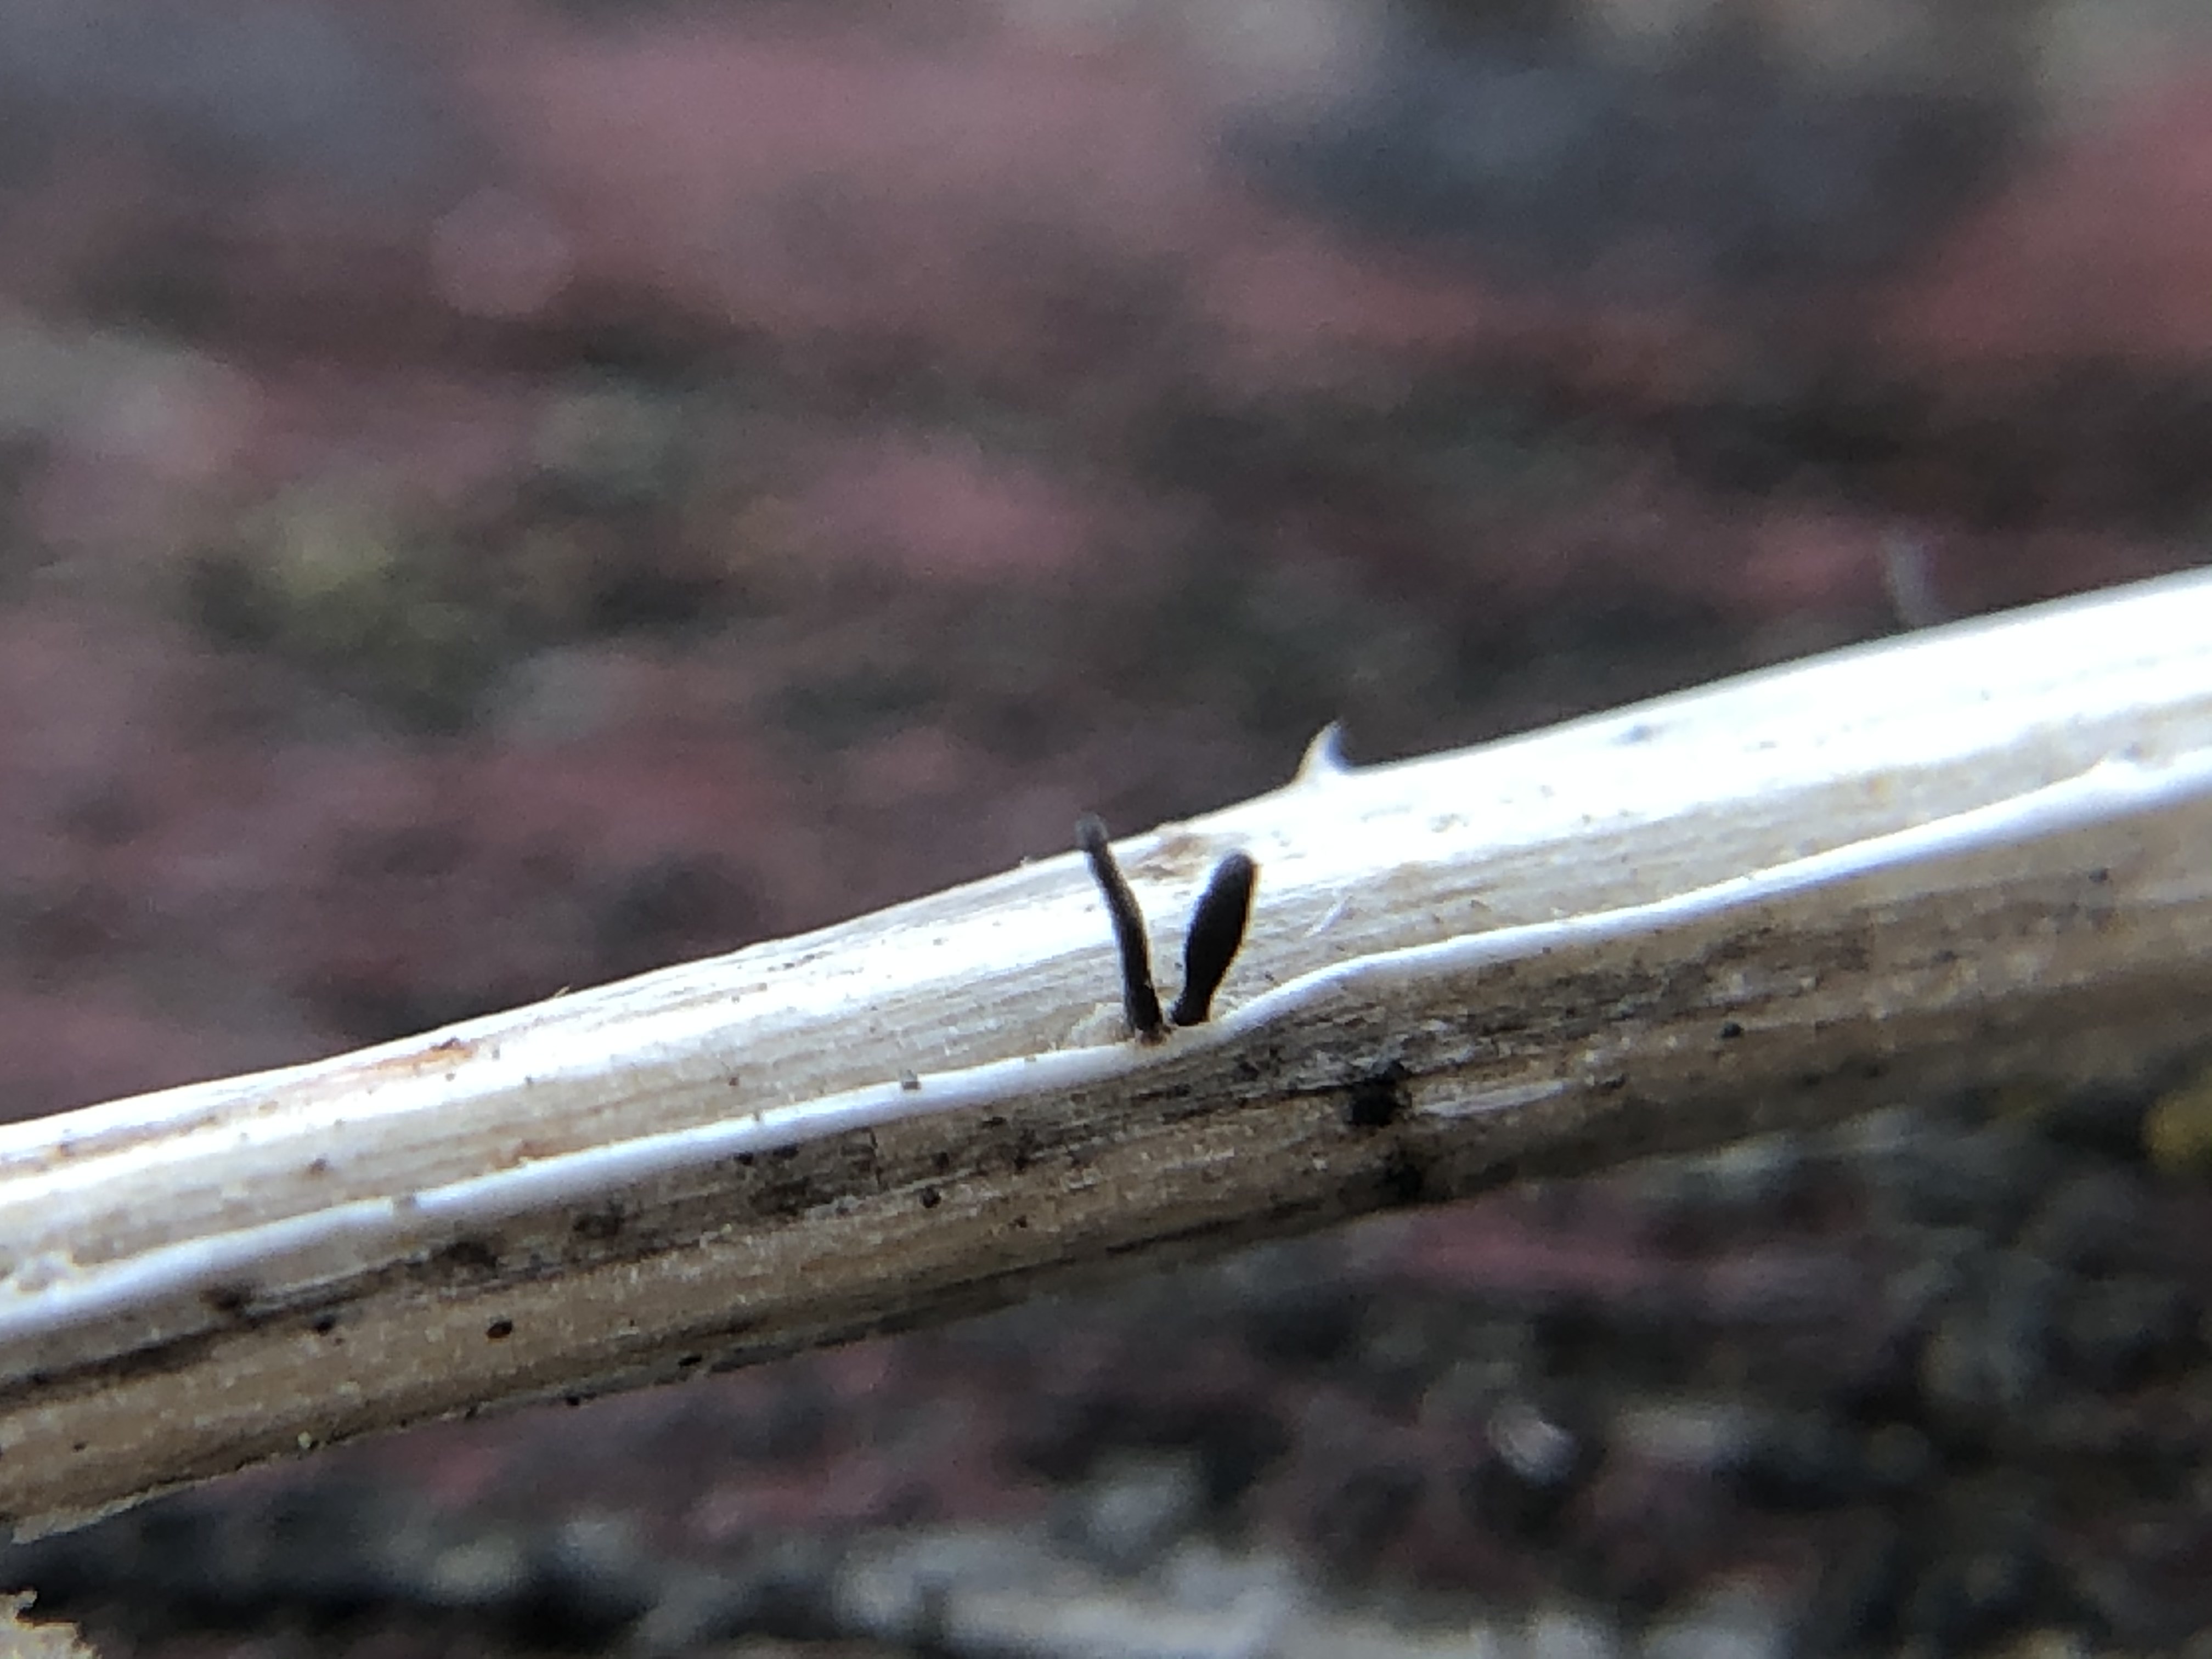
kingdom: Fungi
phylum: Ascomycota
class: Dothideomycetes
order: Acrospermales
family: Acrospermaceae
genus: Acrospermum
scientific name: Acrospermum pallidulum
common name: snerre-stængeltunge
